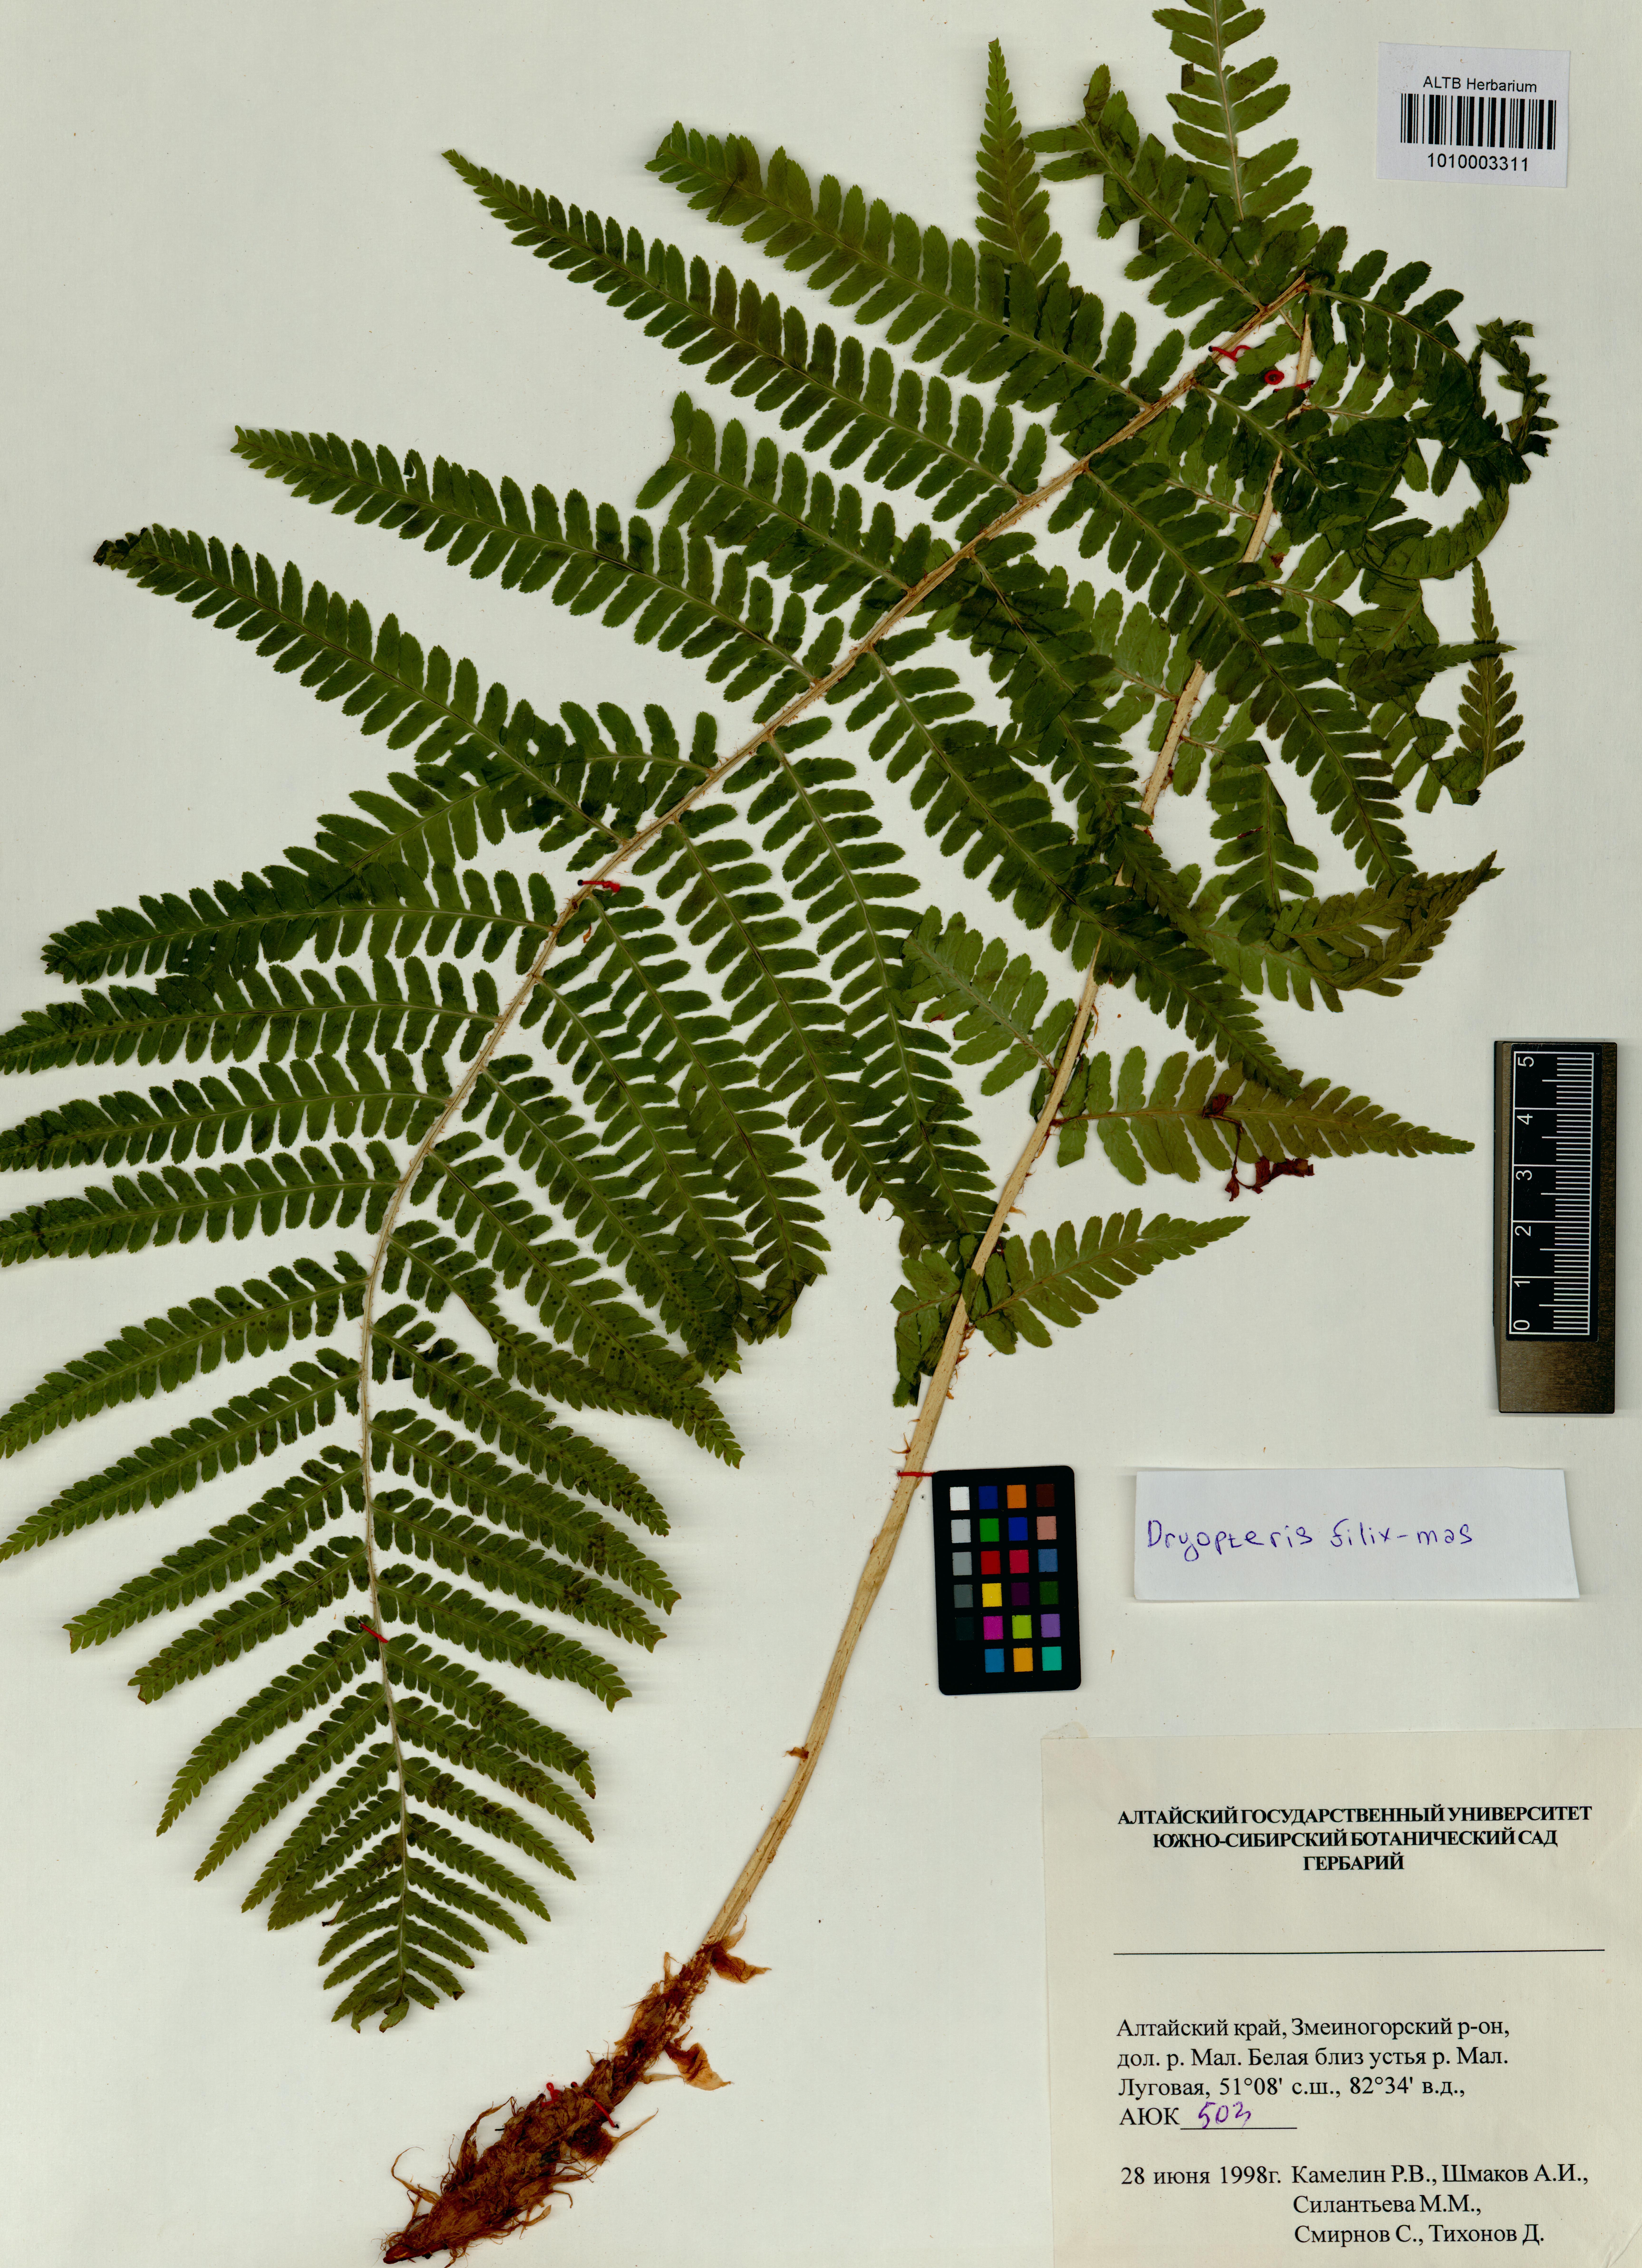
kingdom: Plantae
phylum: Tracheophyta
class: Polypodiopsida
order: Polypodiales
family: Dryopteridaceae
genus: Dryopteris
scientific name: Dryopteris filix-mas
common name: Male fern
